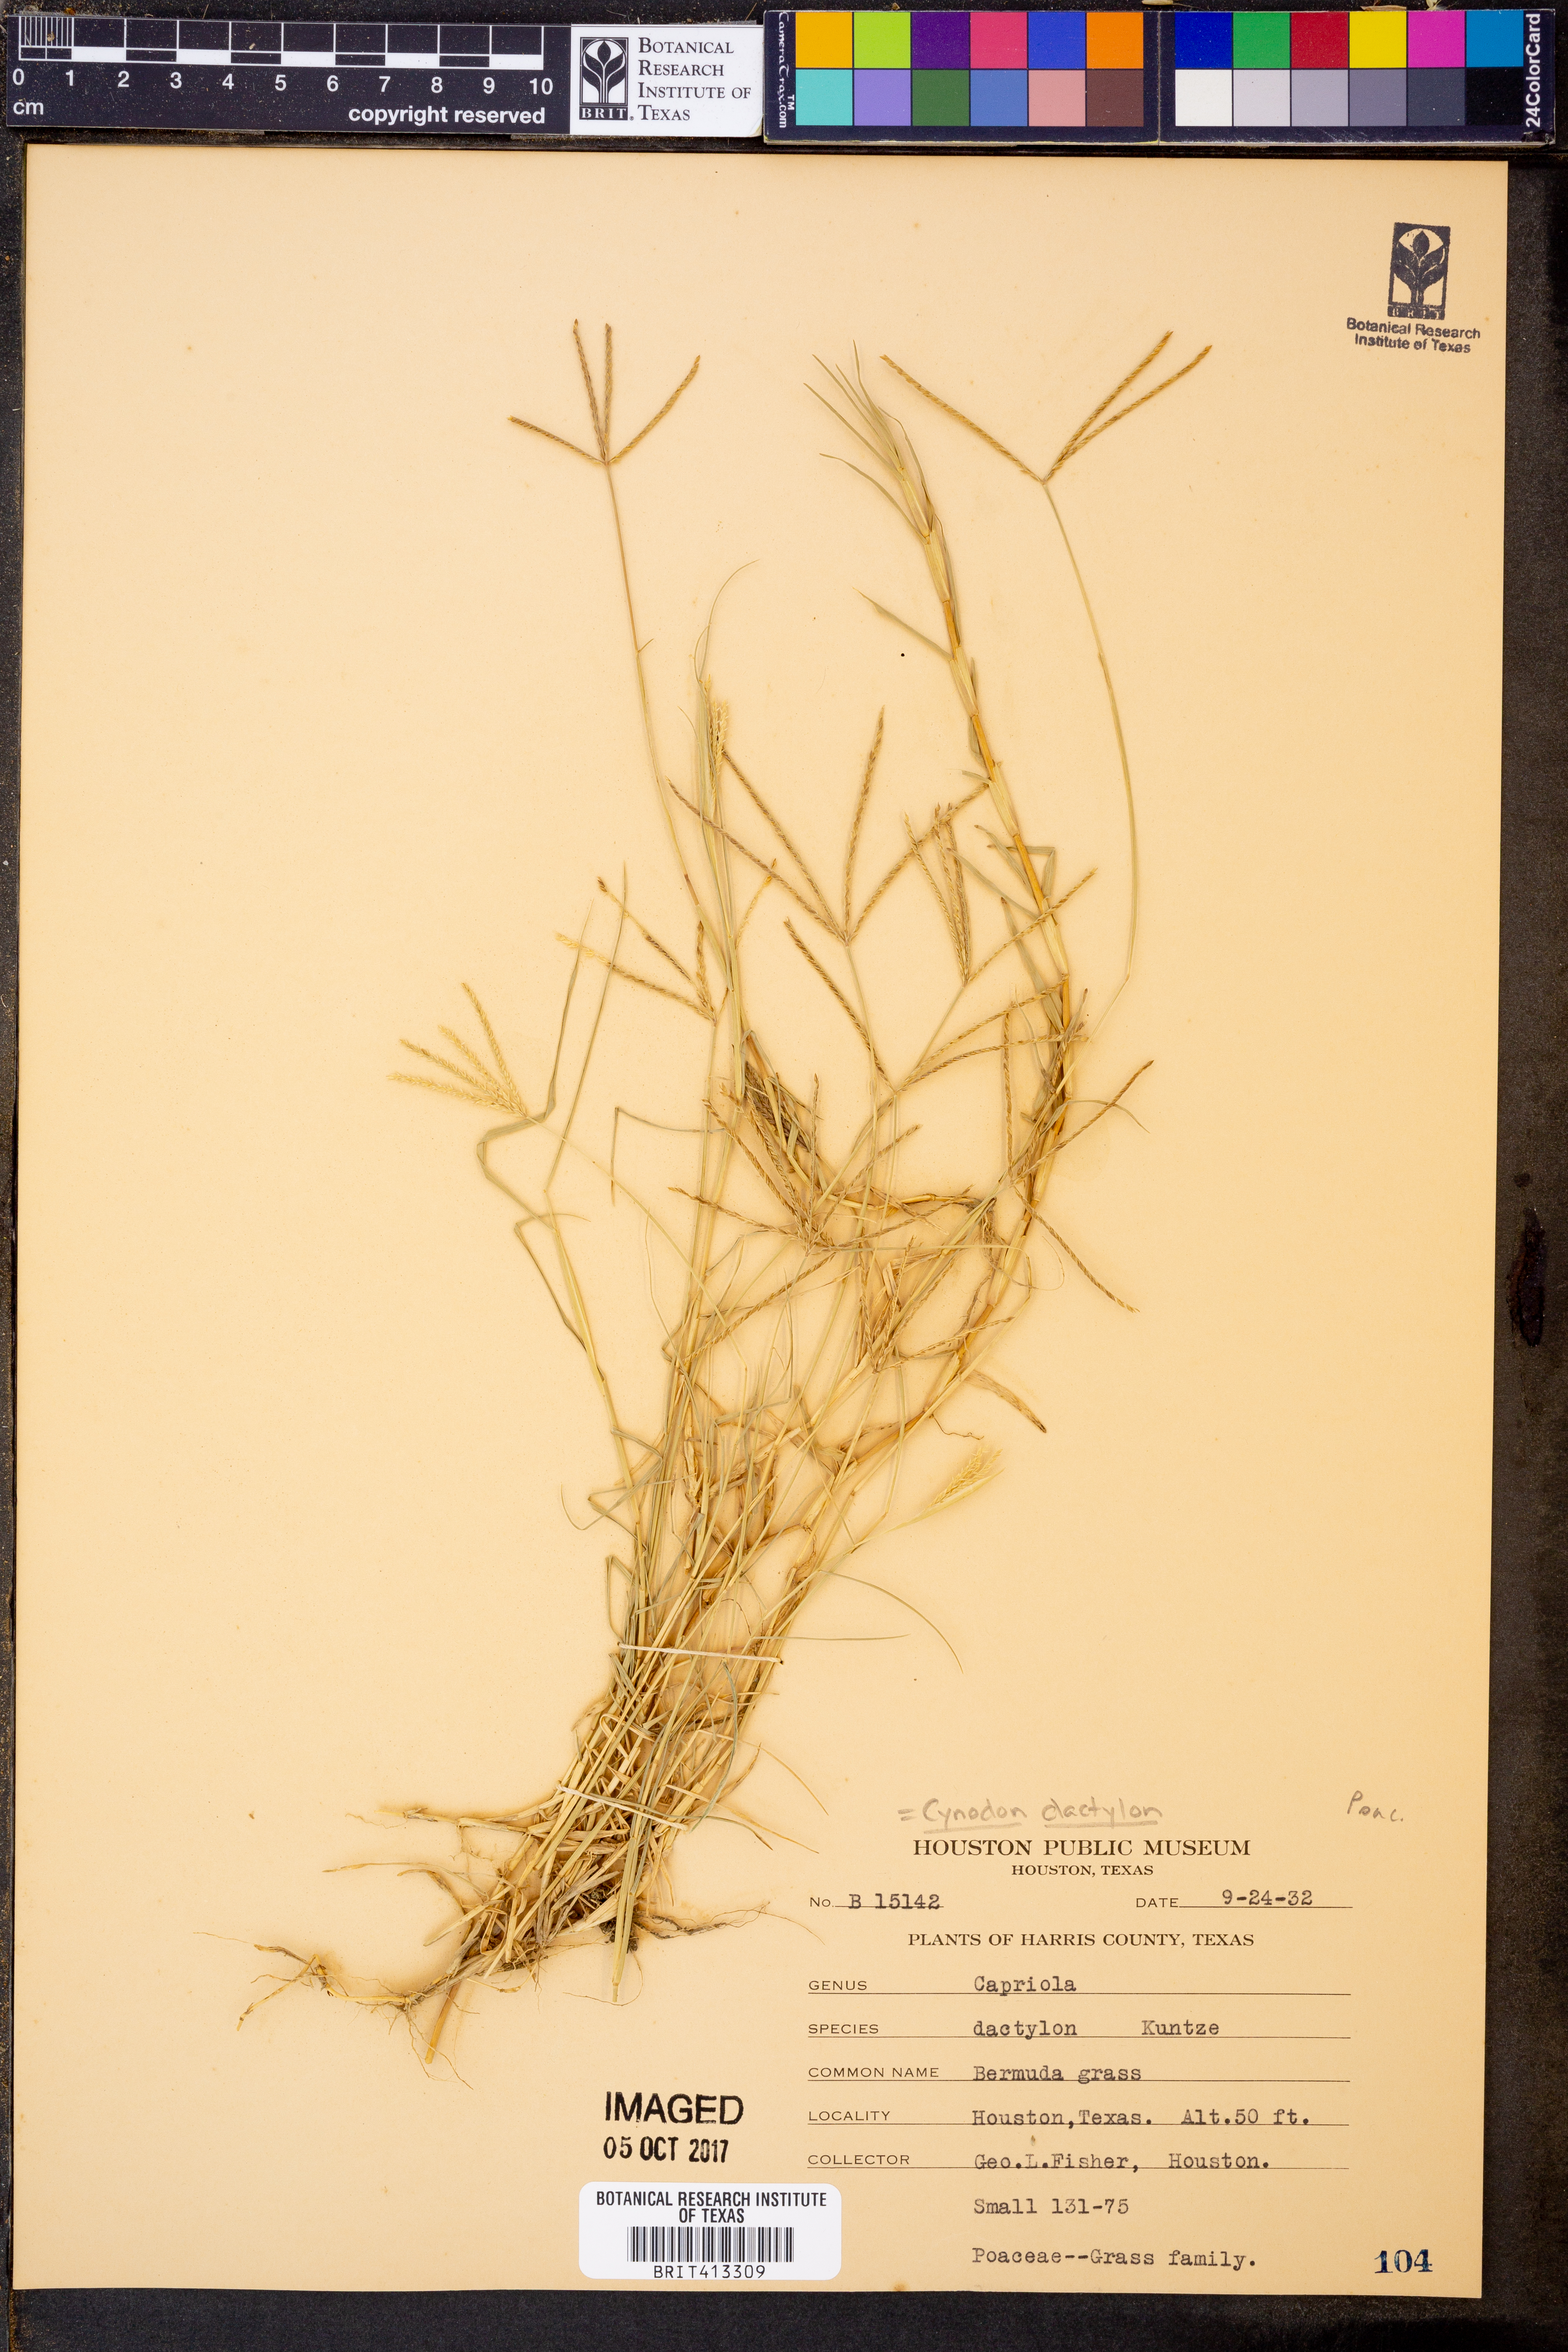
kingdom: Plantae
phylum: Tracheophyta
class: Liliopsida
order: Poales
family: Poaceae
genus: Cynodon
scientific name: Cynodon dactylon
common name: Bermuda grass
